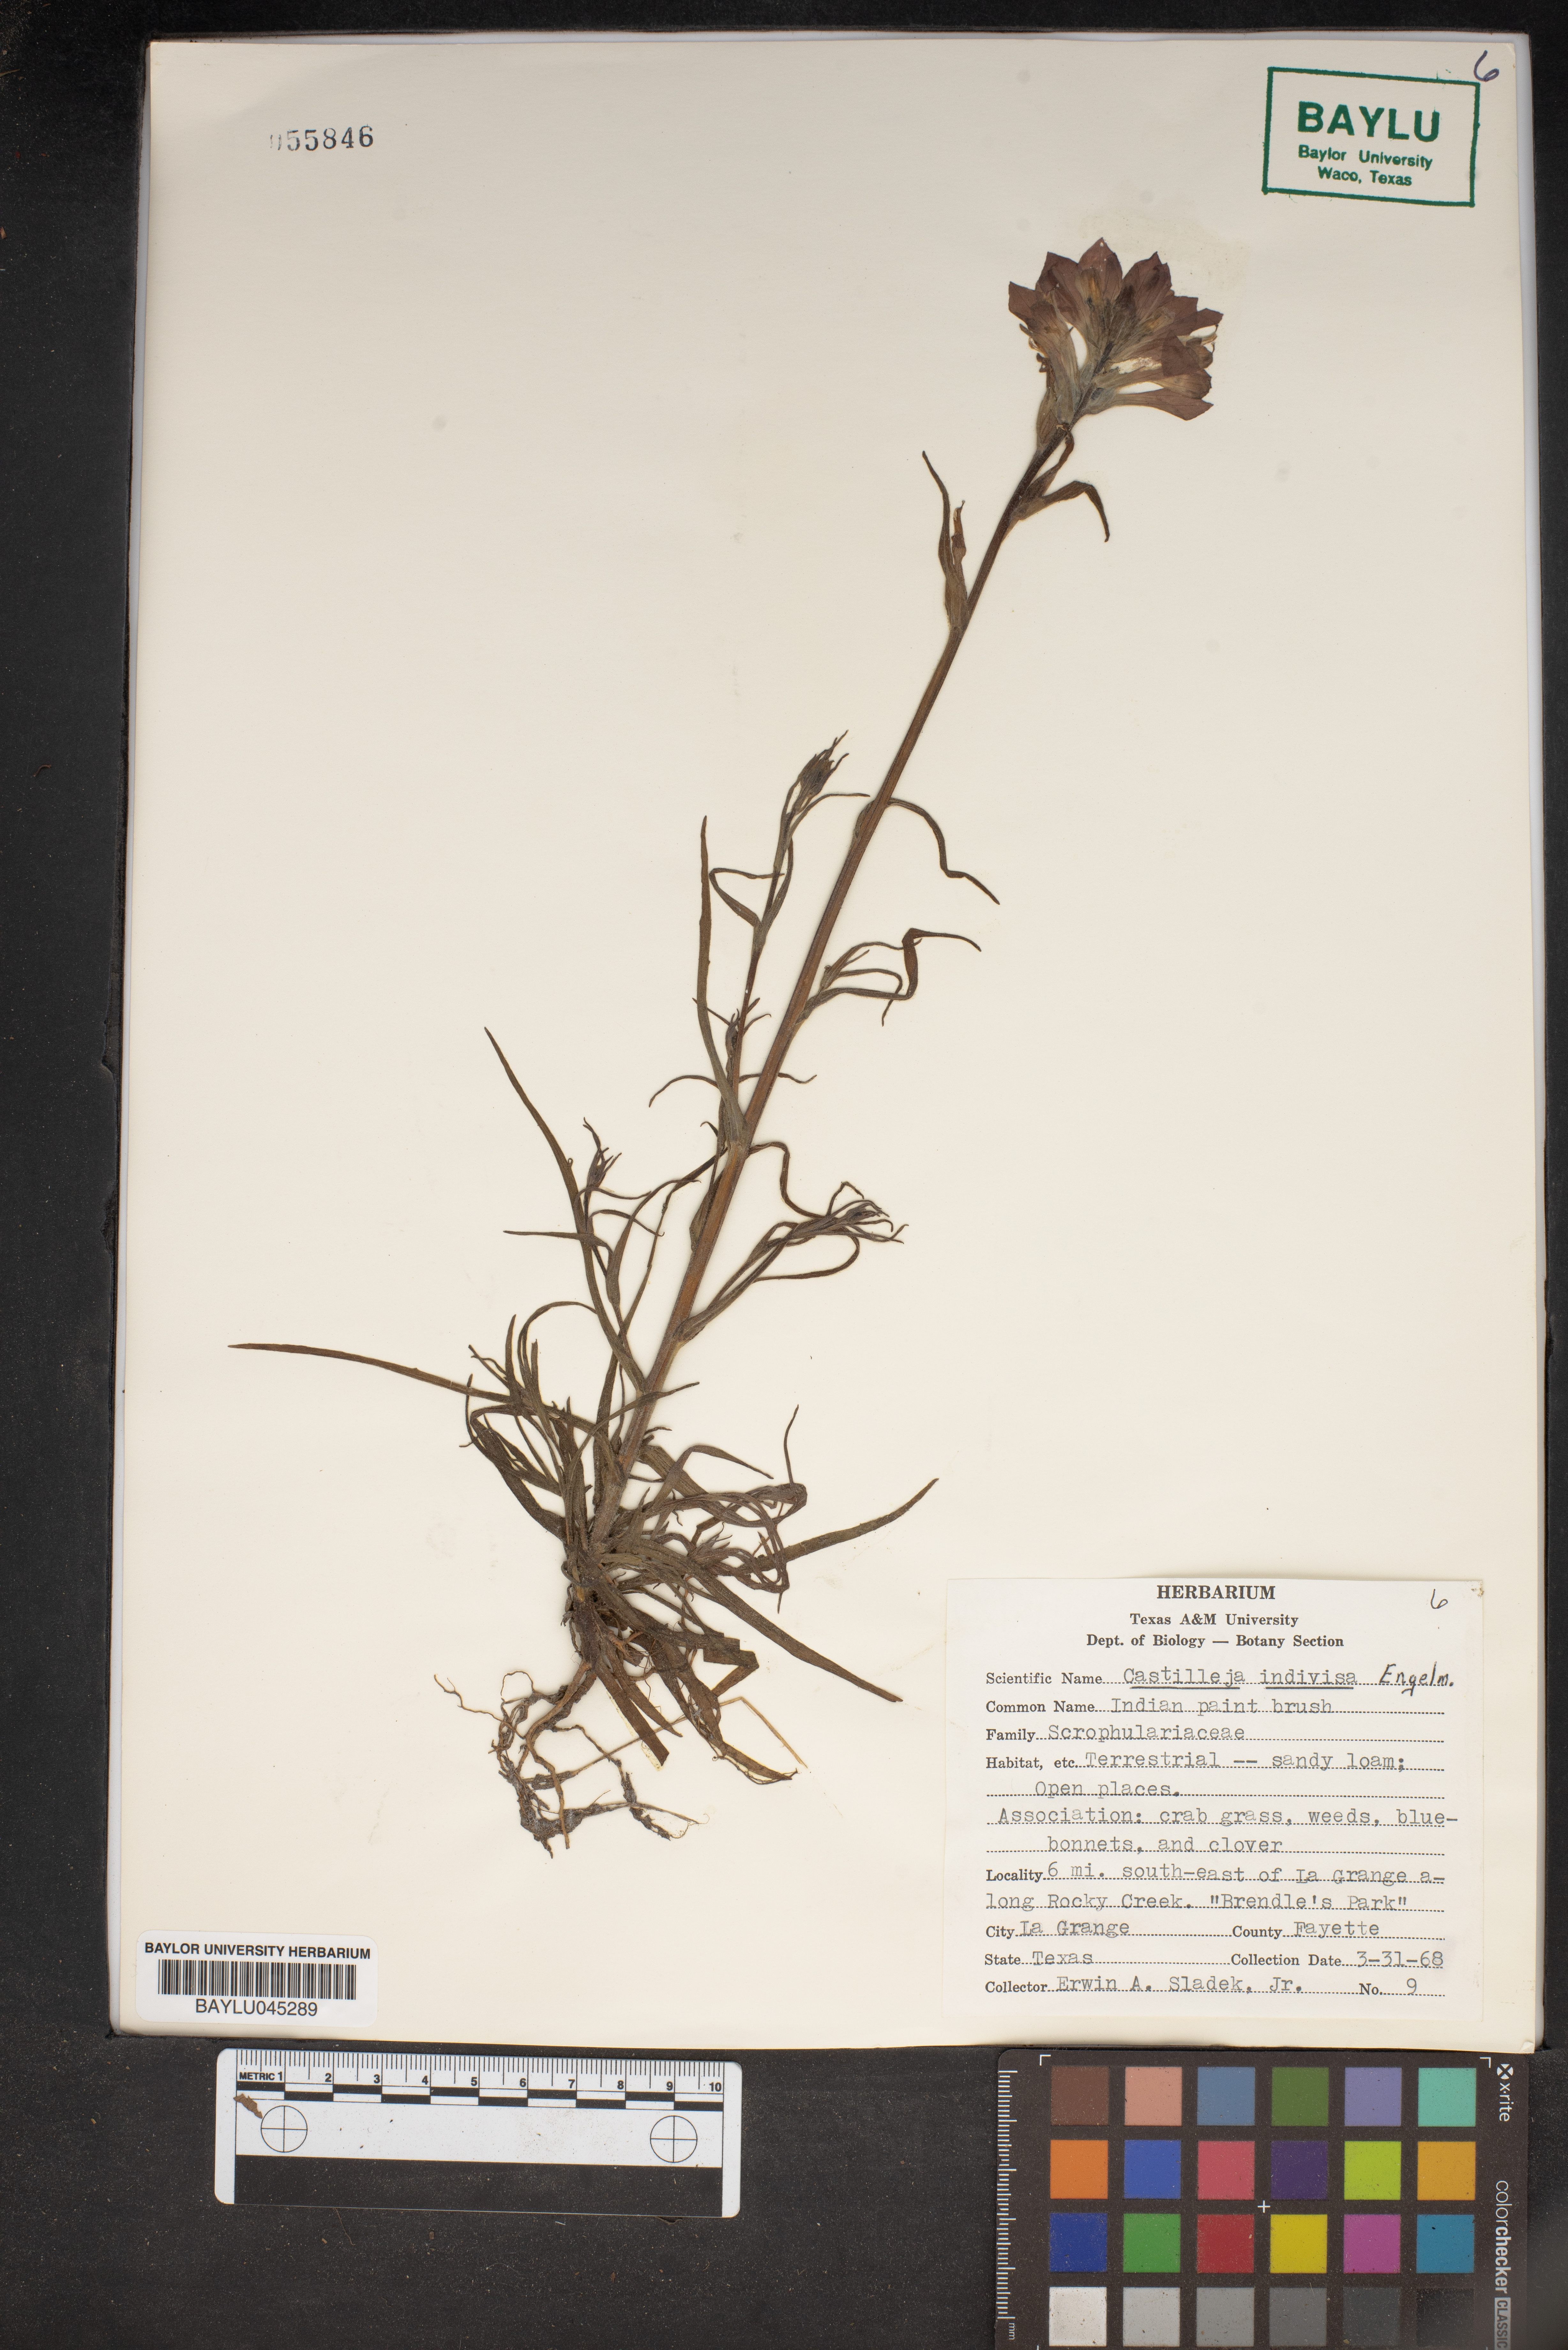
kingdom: Plantae
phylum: Tracheophyta
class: Magnoliopsida
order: Lamiales
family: Orobanchaceae
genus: Castilleja
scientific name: Castilleja indivisa
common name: Texas paintbrush
